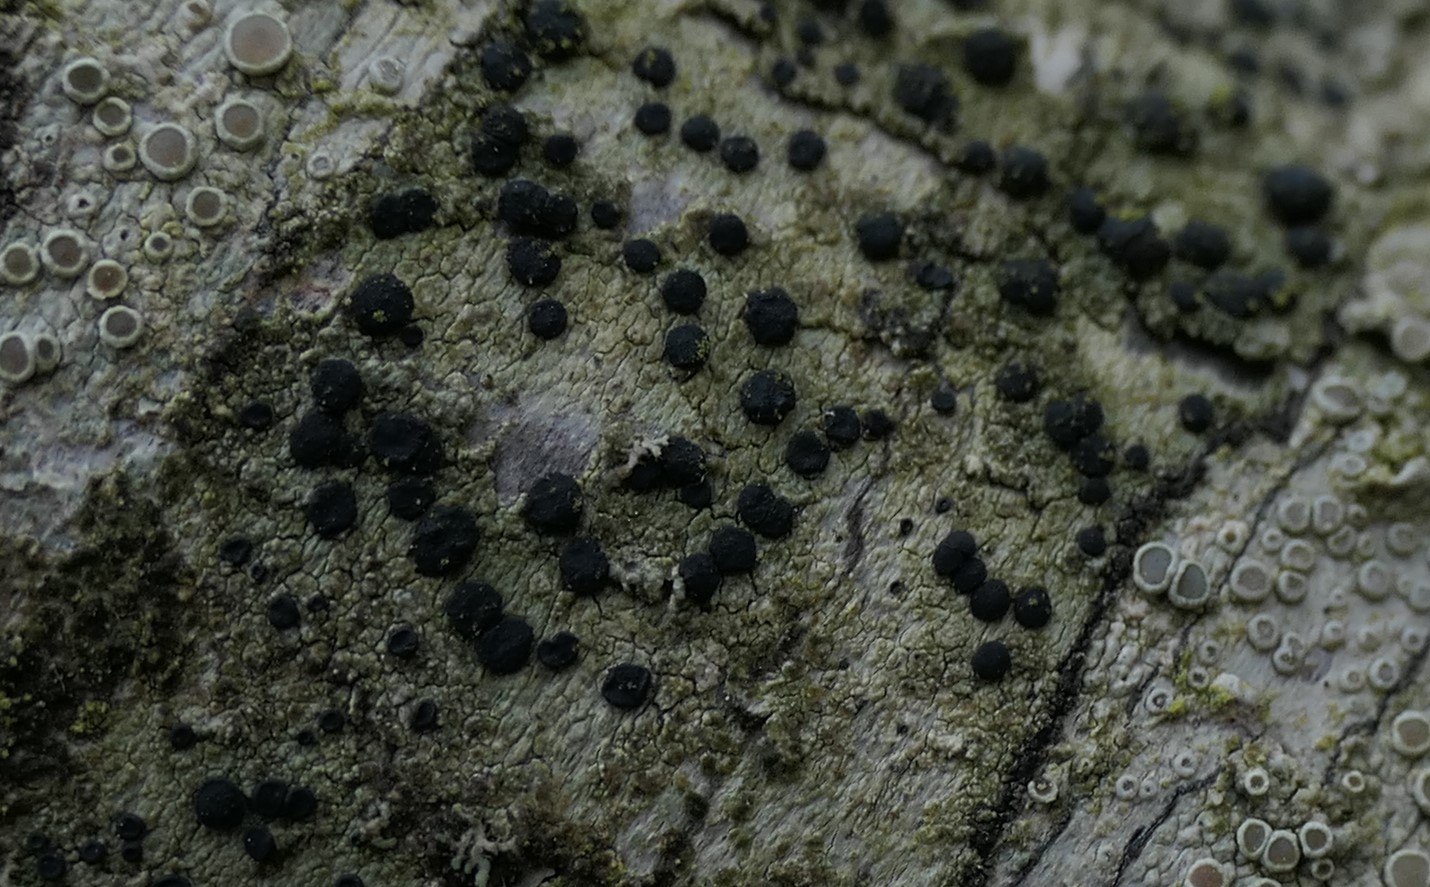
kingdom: Fungi
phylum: Ascomycota
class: Lecanoromycetes
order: Lecanorales
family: Lecanoraceae
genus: Lecidella
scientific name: Lecidella
